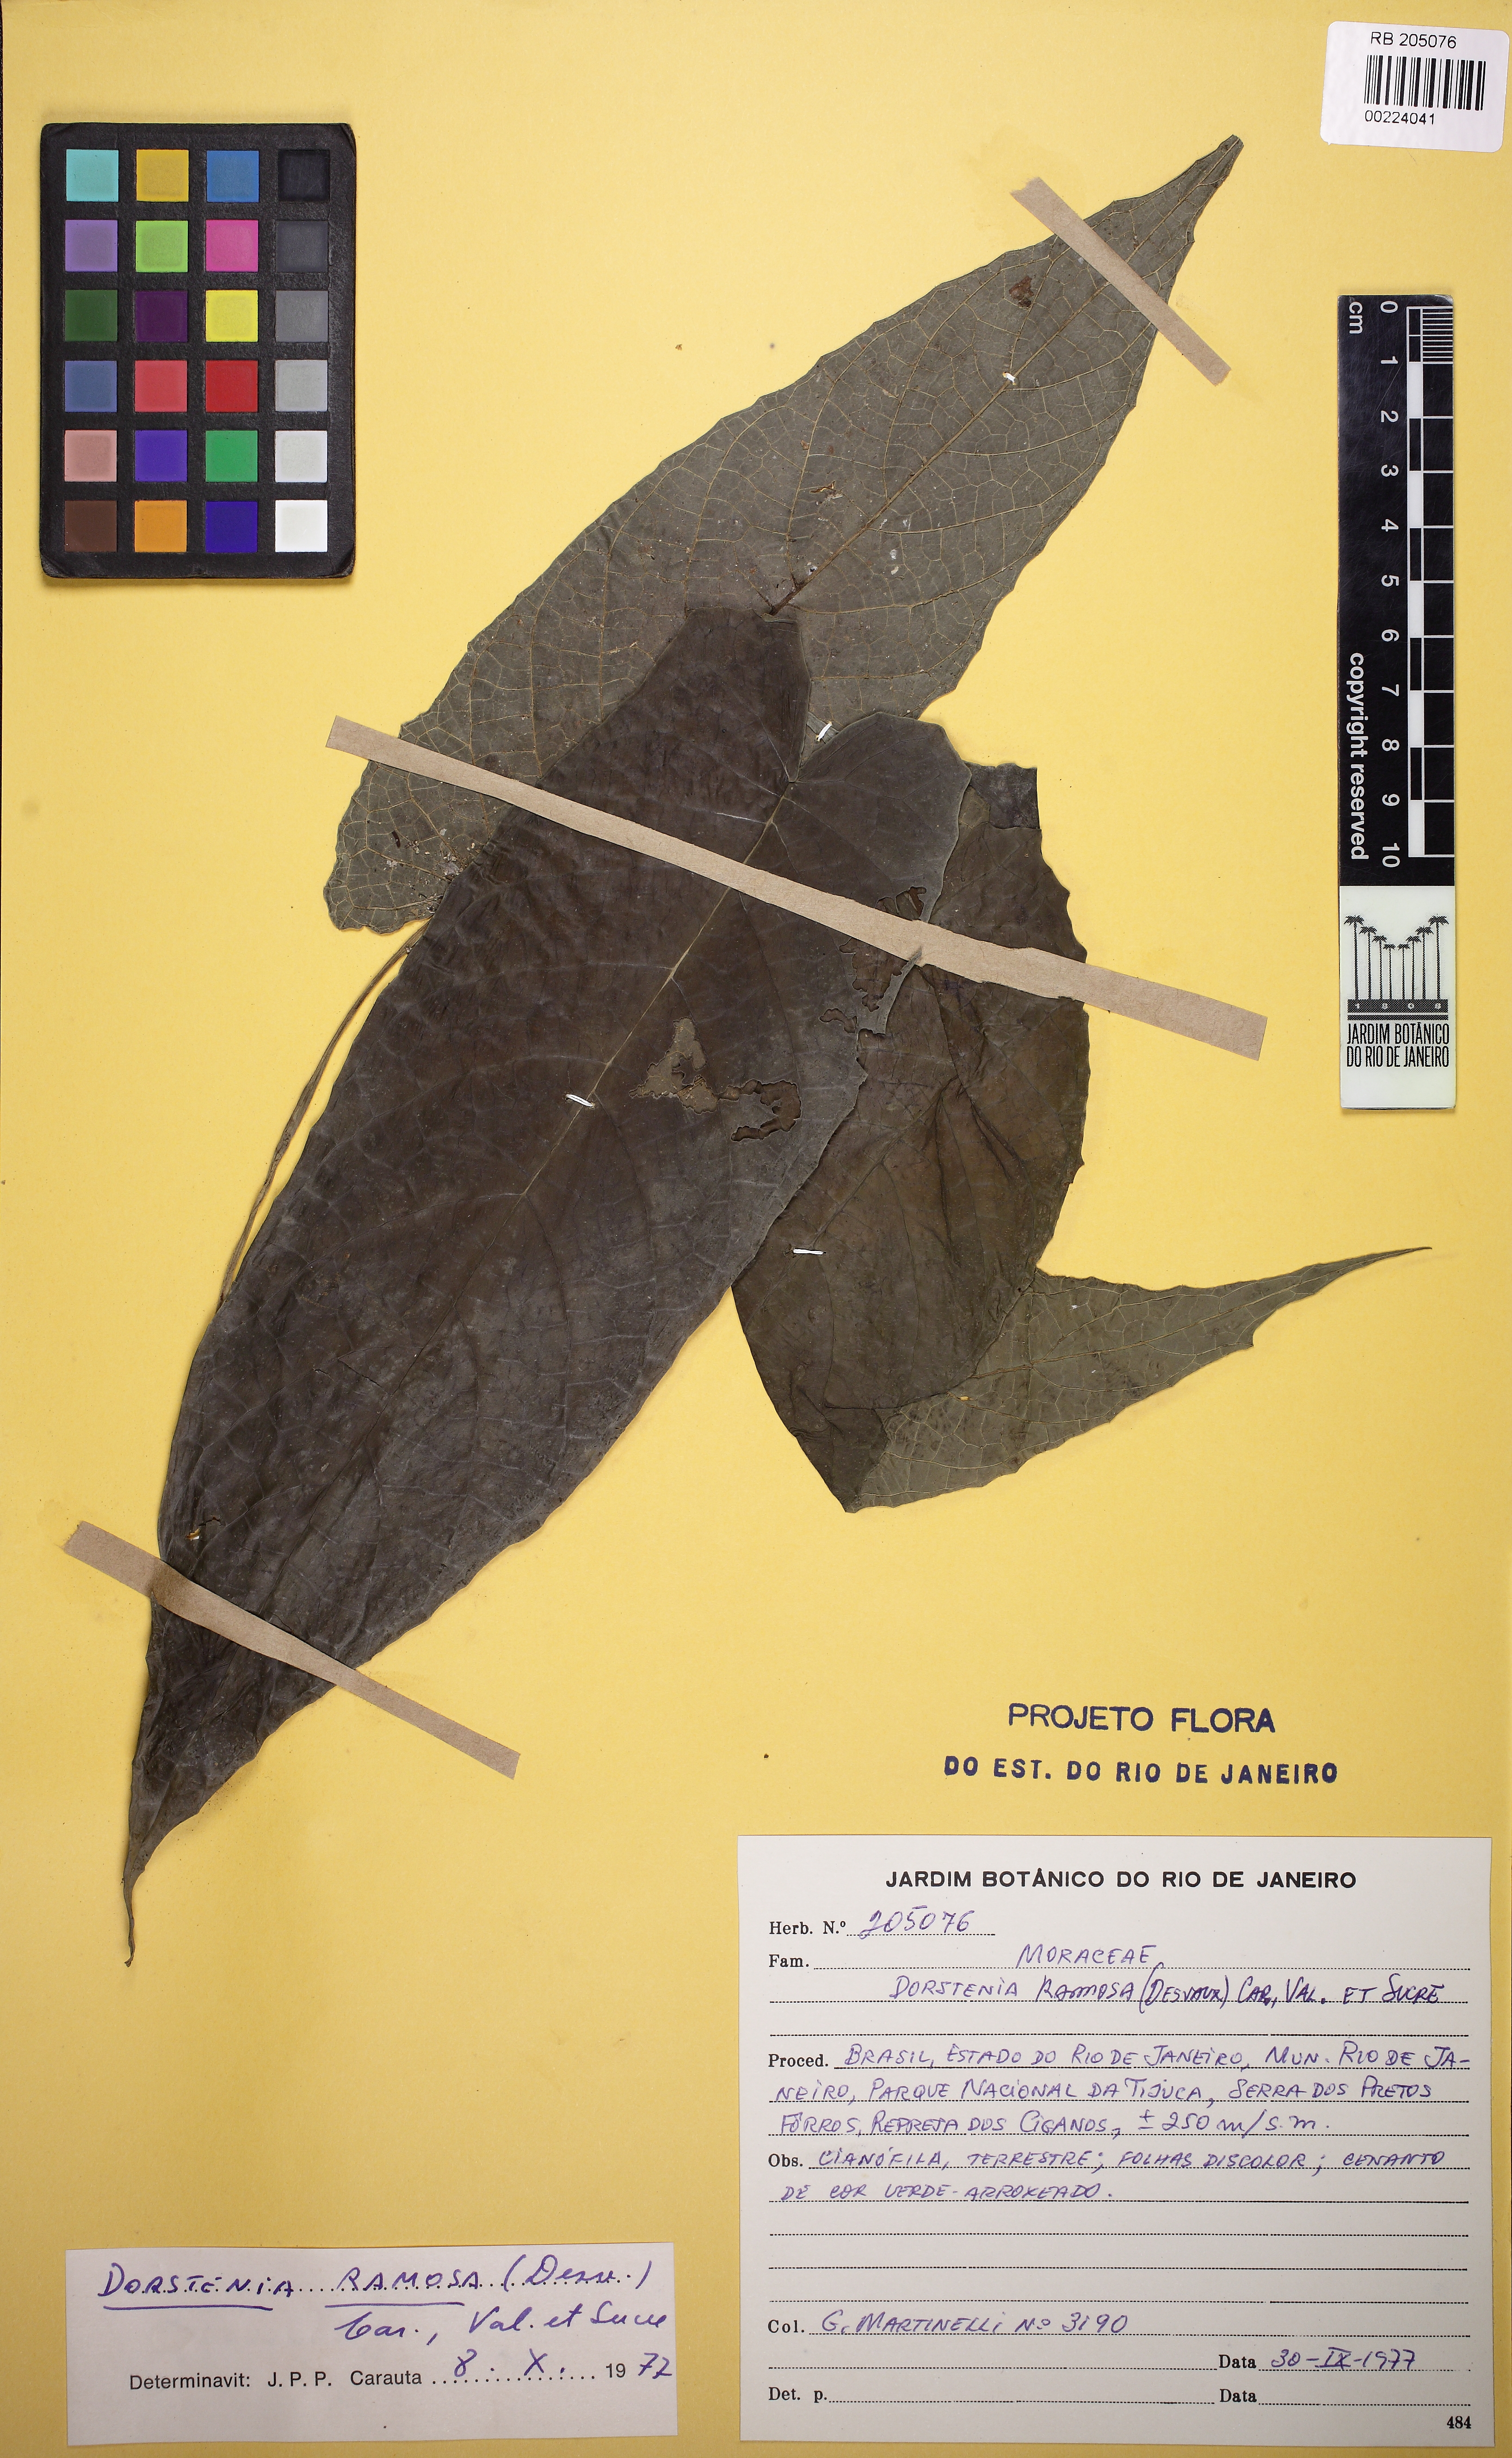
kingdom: Plantae
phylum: Tracheophyta
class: Magnoliopsida
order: Rosales
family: Moraceae
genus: Dorstenia
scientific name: Dorstenia ramosa
